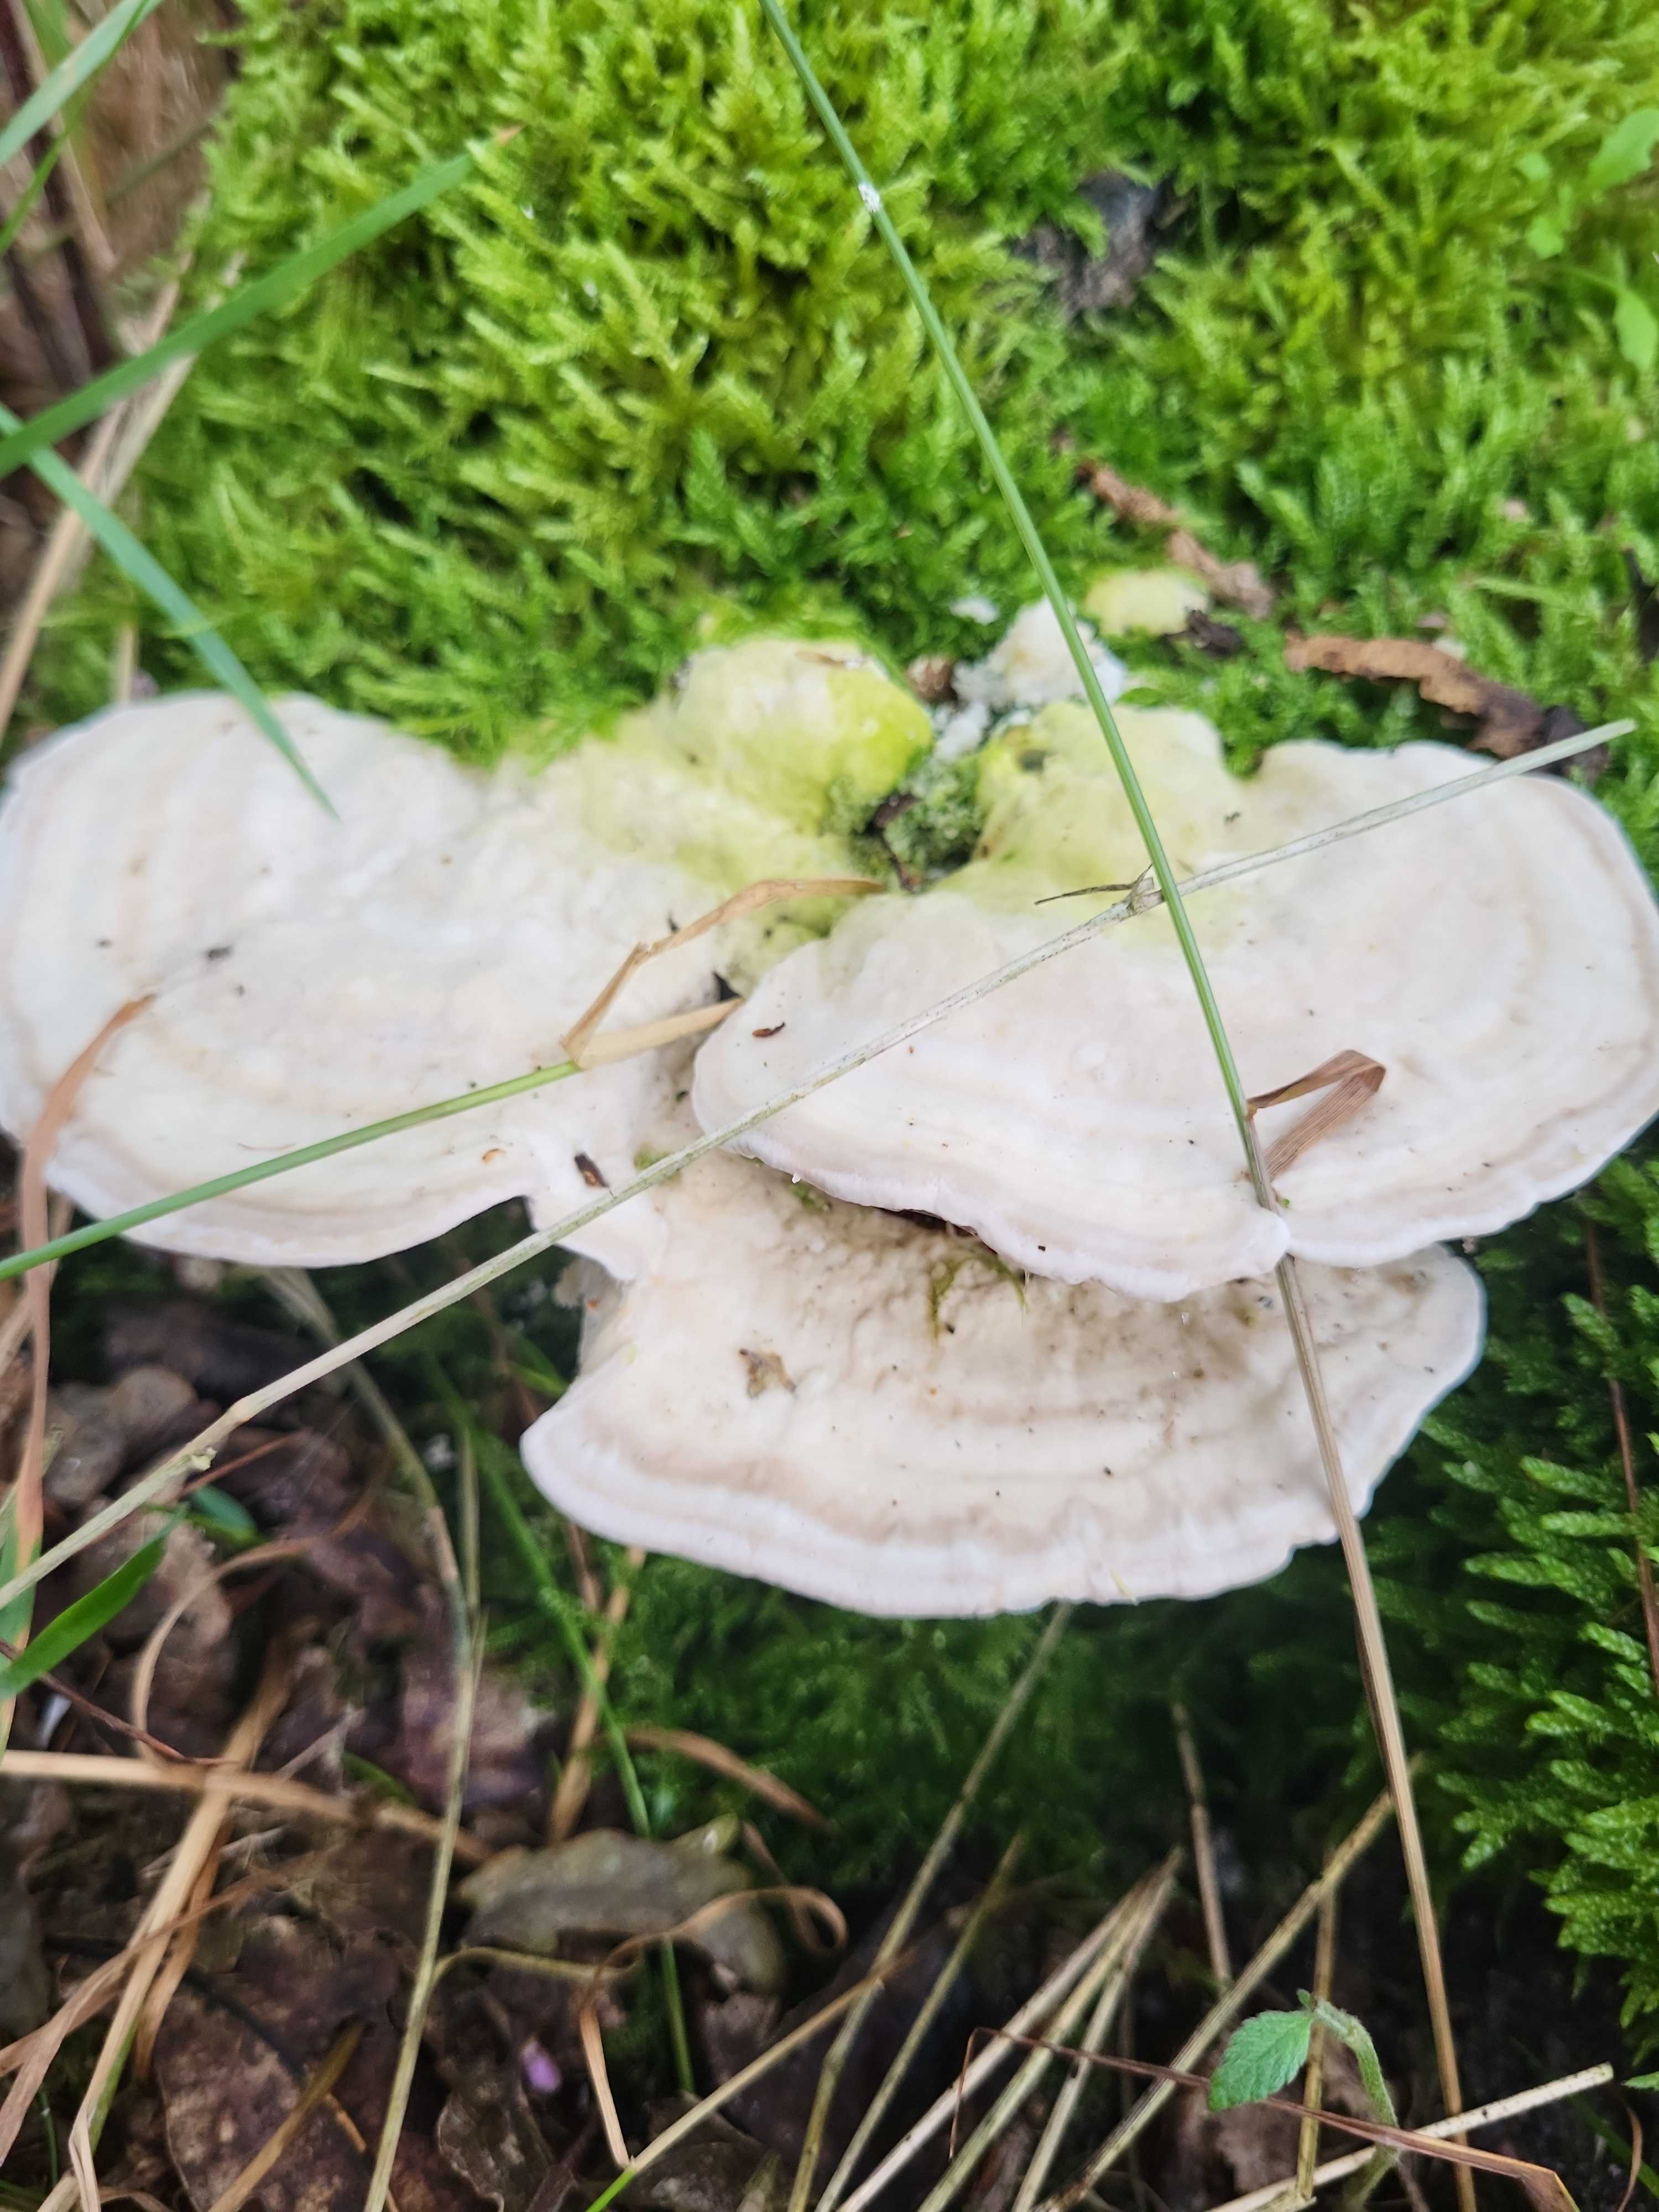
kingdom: Fungi
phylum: Basidiomycota
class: Agaricomycetes
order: Polyporales
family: Polyporaceae
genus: Trametes
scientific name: Trametes gibbosa
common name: puklet læderporesvamp
